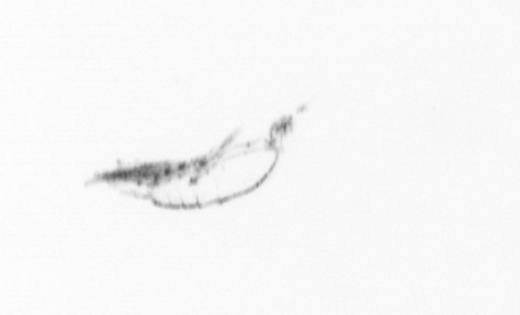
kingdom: Animalia
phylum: Arthropoda
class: Copepoda
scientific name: Copepoda
